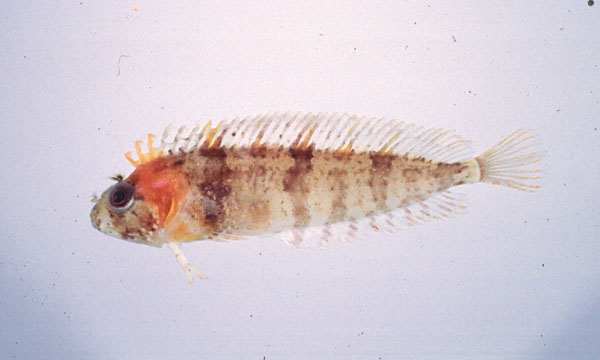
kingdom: Animalia
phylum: Chordata
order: Perciformes
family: Clinidae
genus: Clinus
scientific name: Clinus nematopterus
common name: Chinese klipfish
